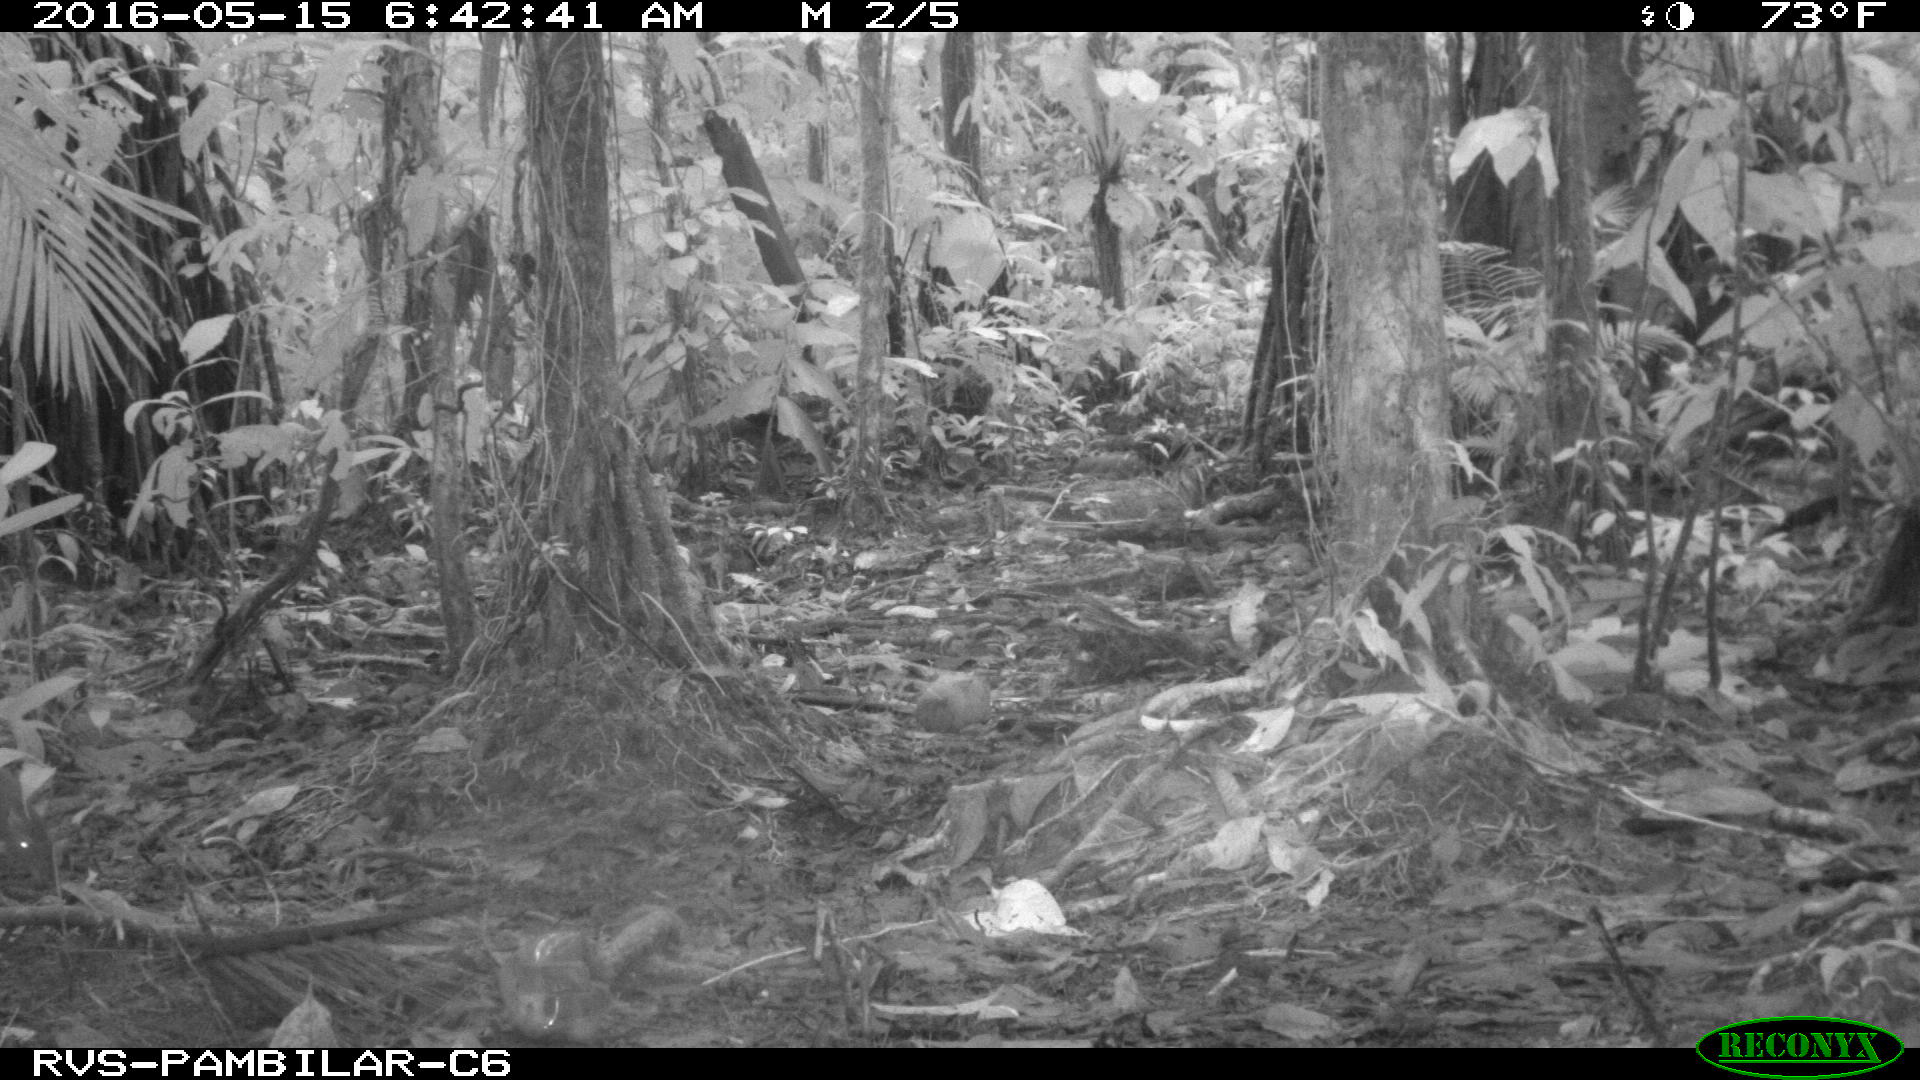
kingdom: Animalia
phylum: Chordata
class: Mammalia
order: Rodentia
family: Dasyproctidae
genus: Dasyprocta
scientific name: Dasyprocta punctata
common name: Central american agouti
